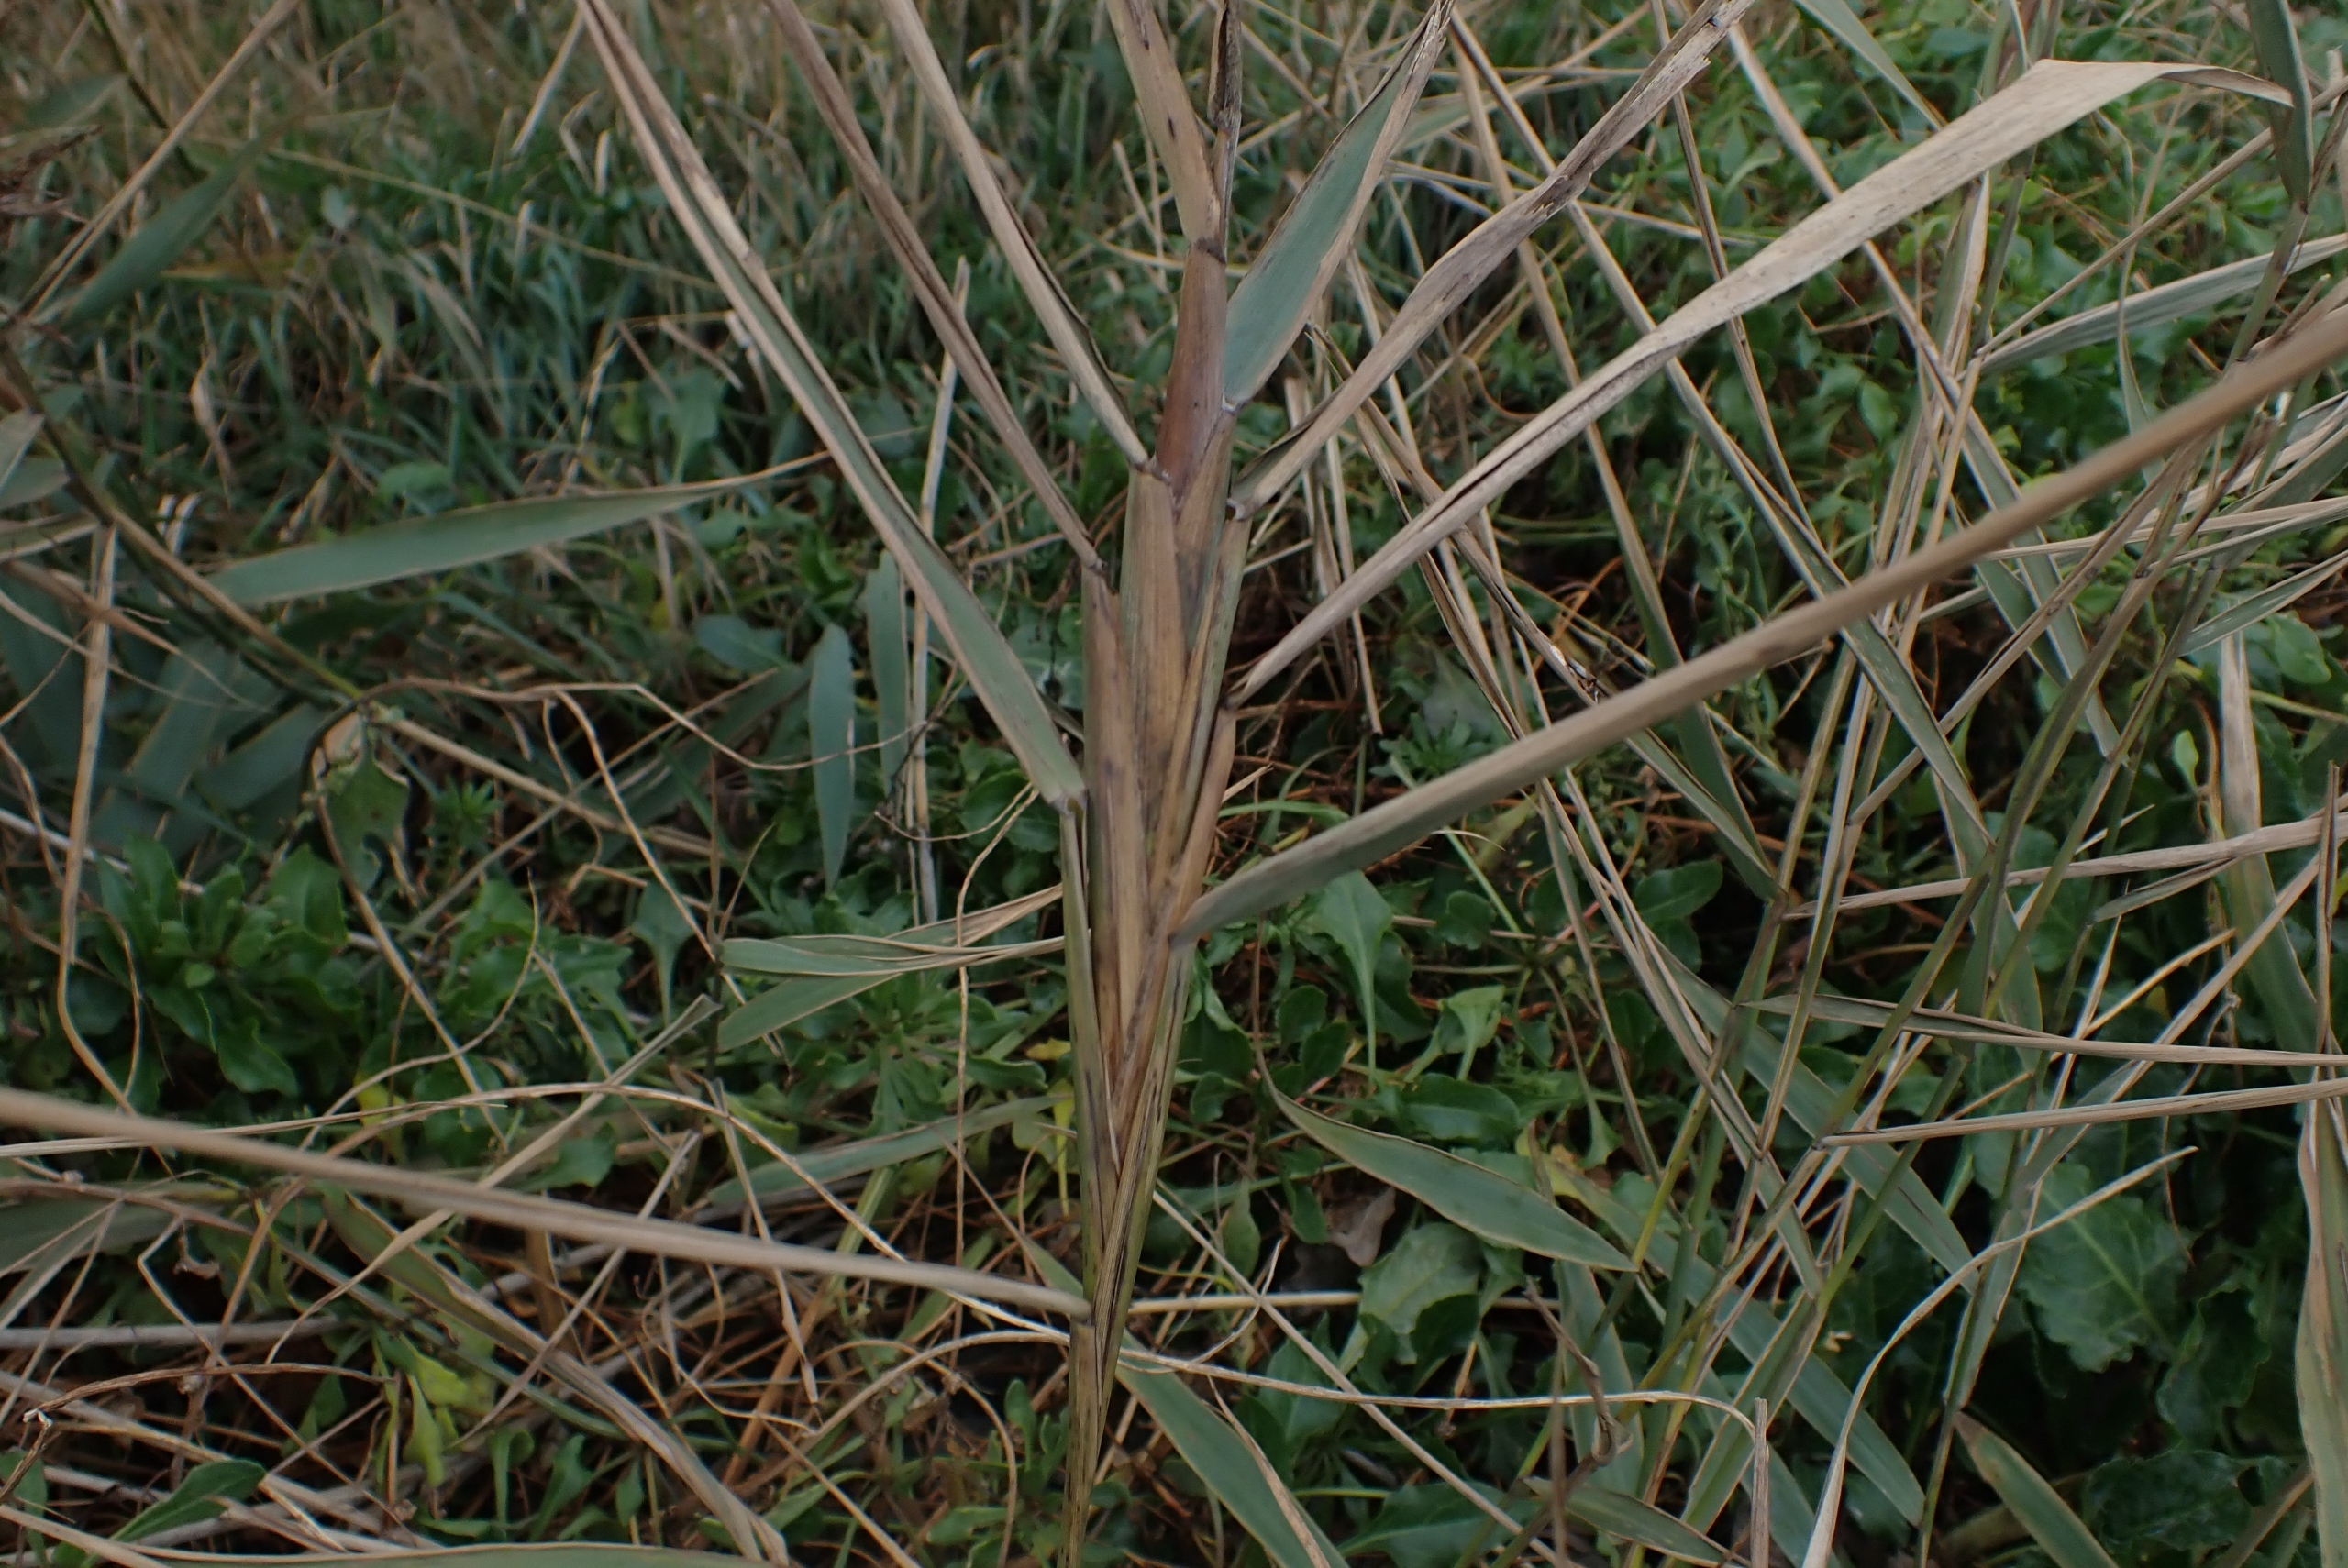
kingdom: Animalia
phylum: Arthropoda
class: Insecta
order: Diptera
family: Chloropidae
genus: Lipara
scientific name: Lipara lucens
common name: Stor cigargalle-fritflue
